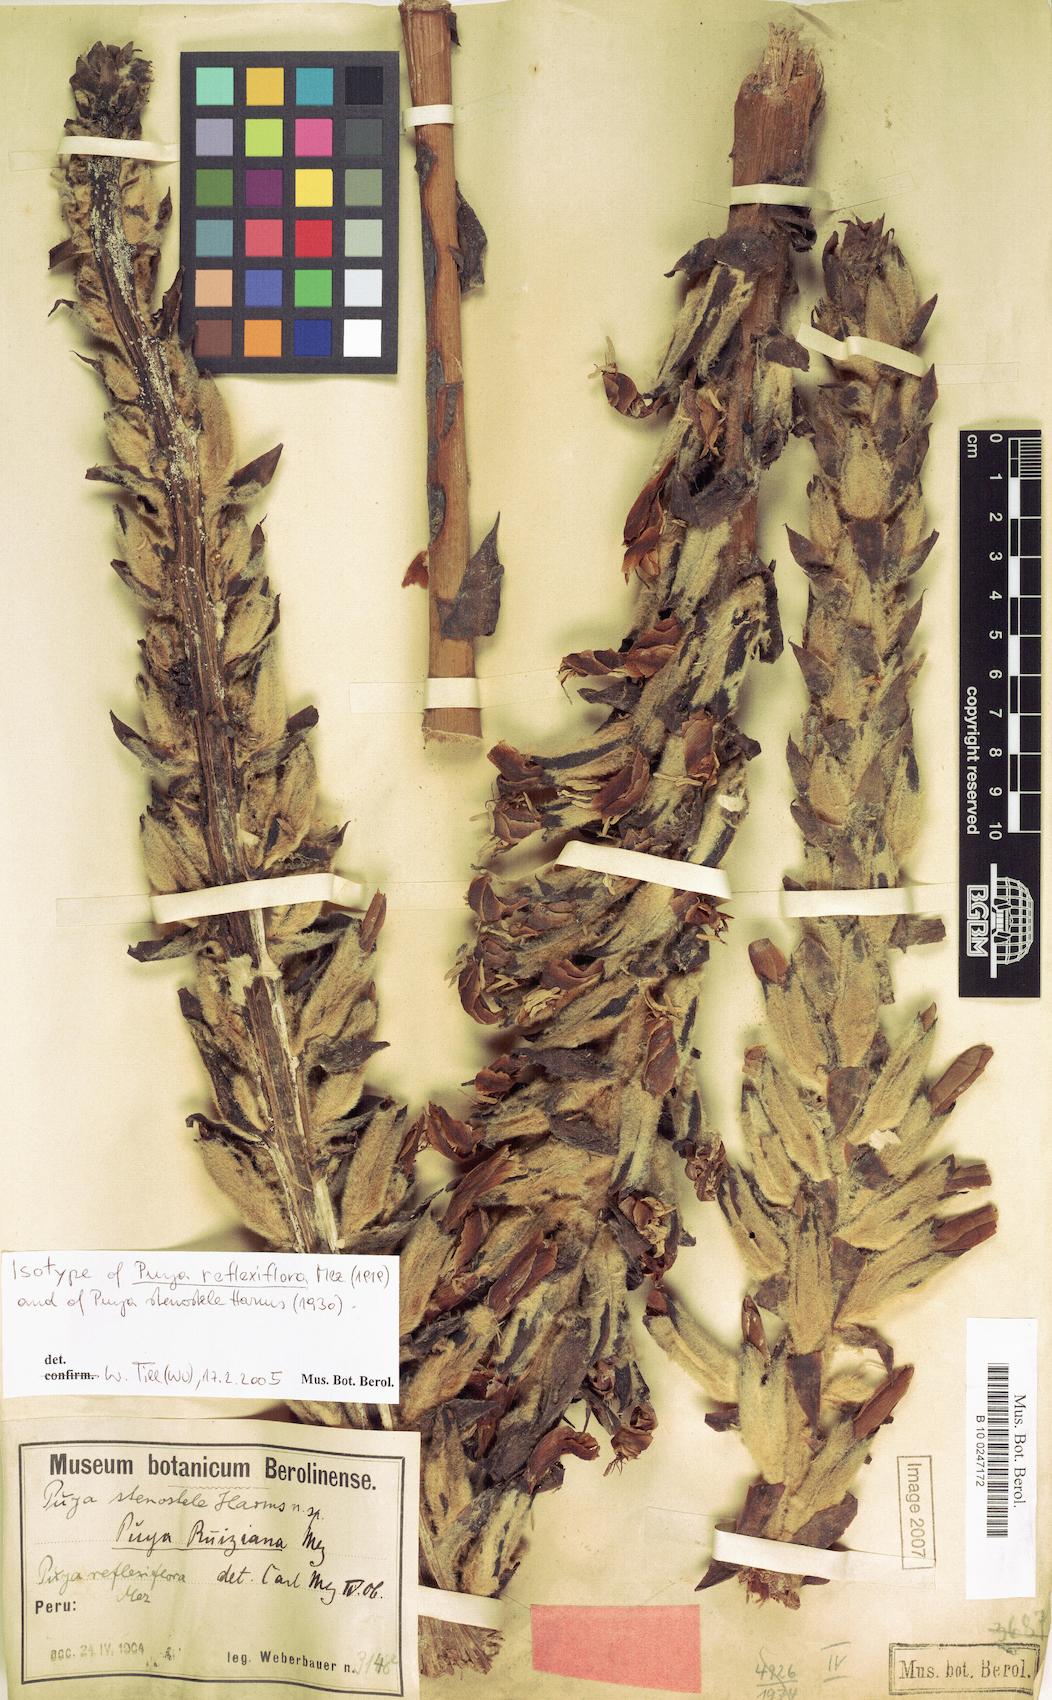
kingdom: Plantae
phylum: Tracheophyta
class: Liliopsida
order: Poales
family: Bromeliaceae
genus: Puya
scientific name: Puya reflexiflora
